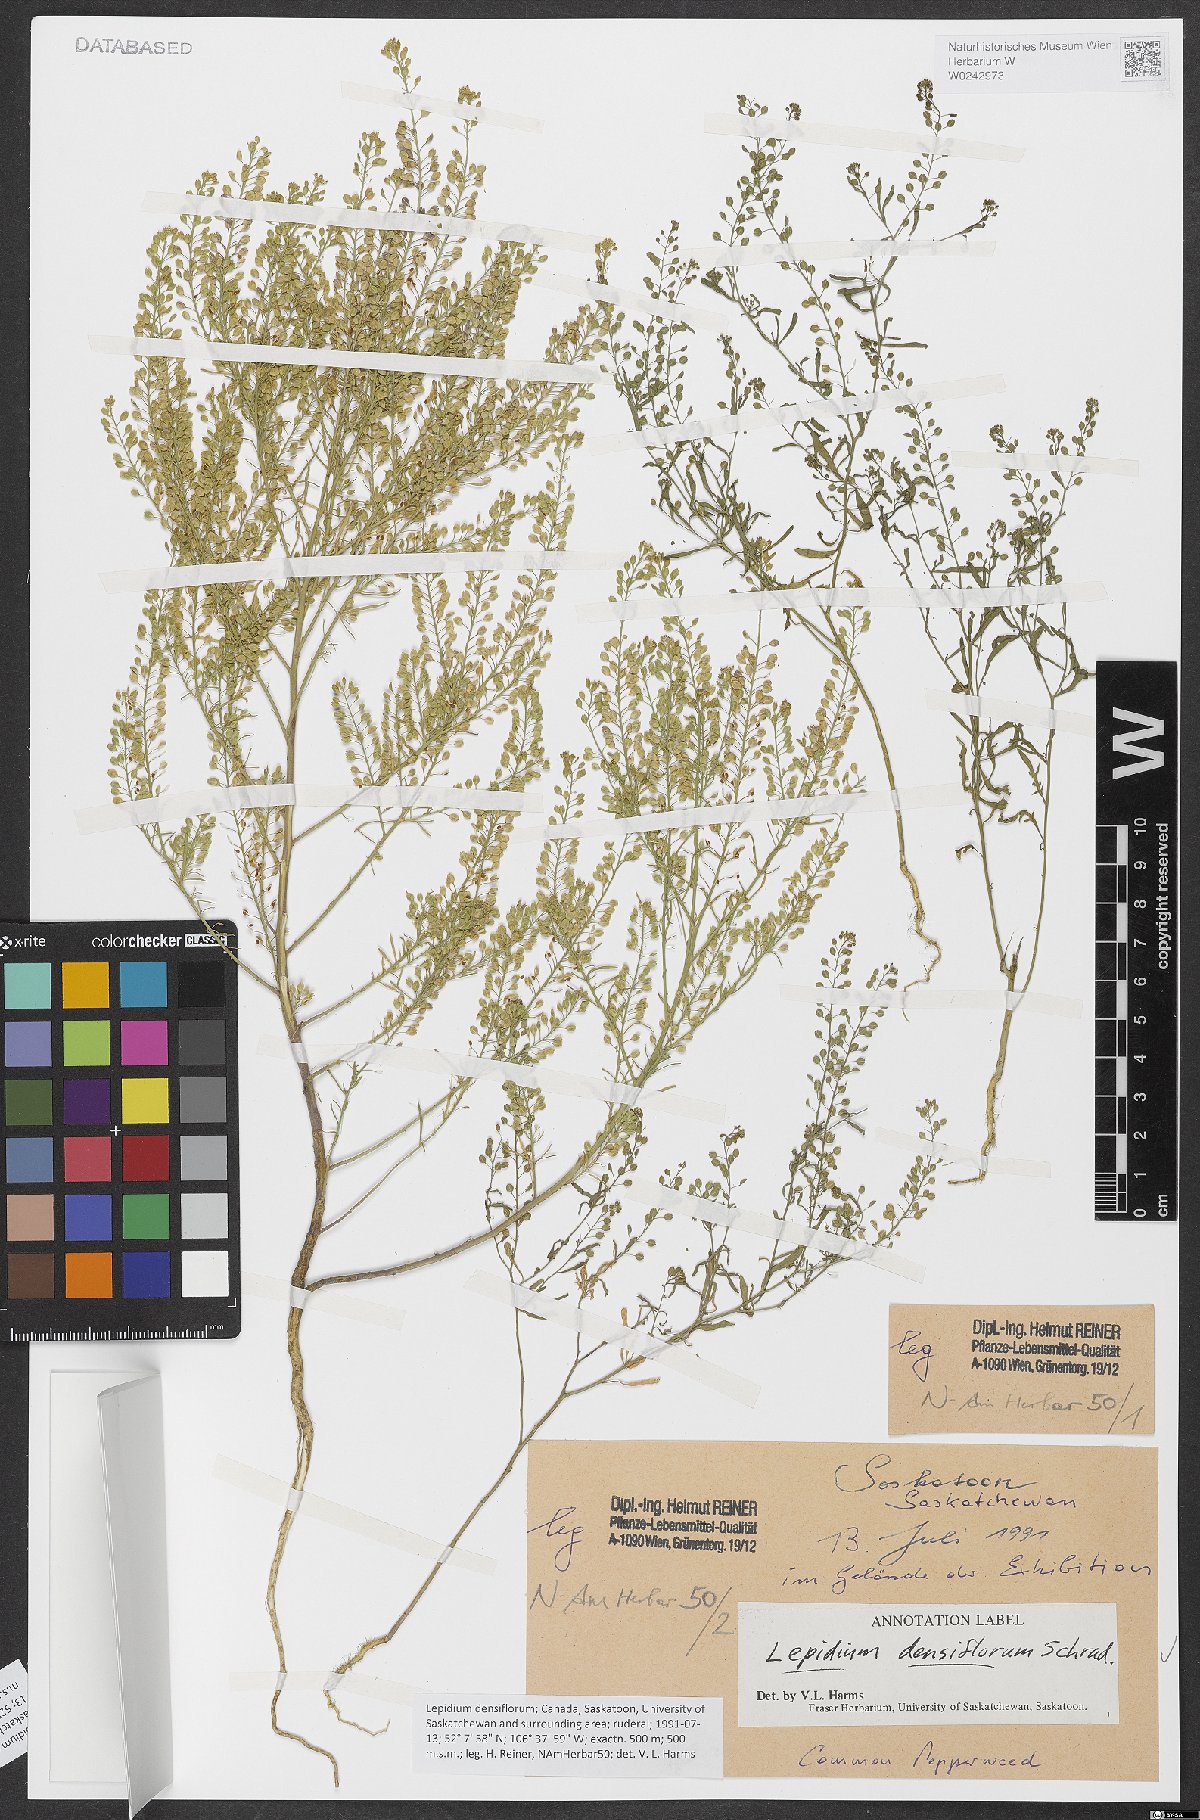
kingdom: Plantae
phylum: Tracheophyta
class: Magnoliopsida
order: Brassicales
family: Brassicaceae
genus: Lepidium
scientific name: Lepidium densiflorum
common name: Miner's pepperwort
